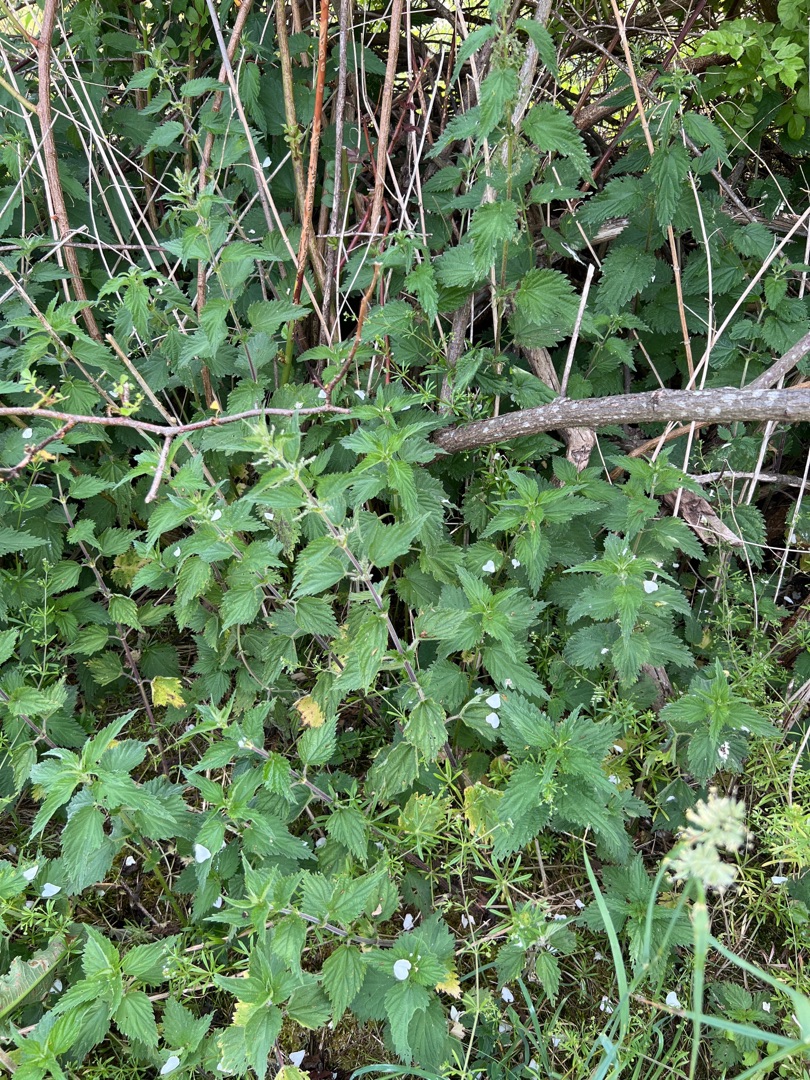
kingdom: Plantae
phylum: Tracheophyta
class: Magnoliopsida
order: Rosales
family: Urticaceae
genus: Urtica
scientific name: Urtica dioica
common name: Stor nælde
